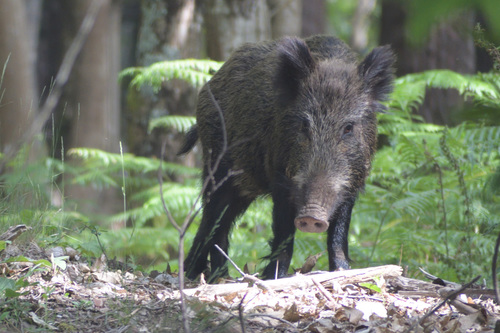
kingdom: Animalia
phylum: Chordata
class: Mammalia
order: Artiodactyla
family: Suidae
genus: Sus
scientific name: Sus scrofa
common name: Wild boar
